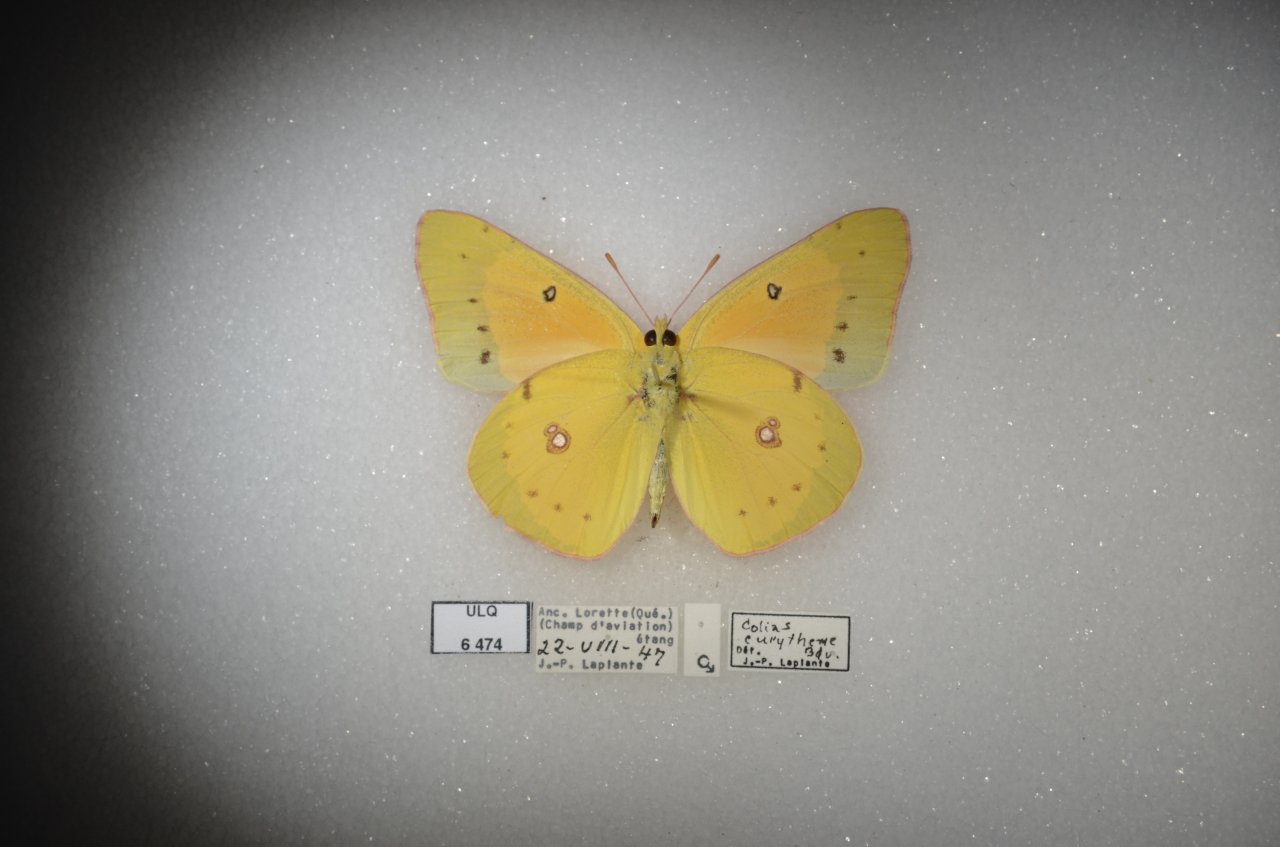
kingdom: Animalia
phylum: Arthropoda
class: Insecta
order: Lepidoptera
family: Pieridae
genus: Colias
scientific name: Colias eurytheme
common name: Orange Sulphur
